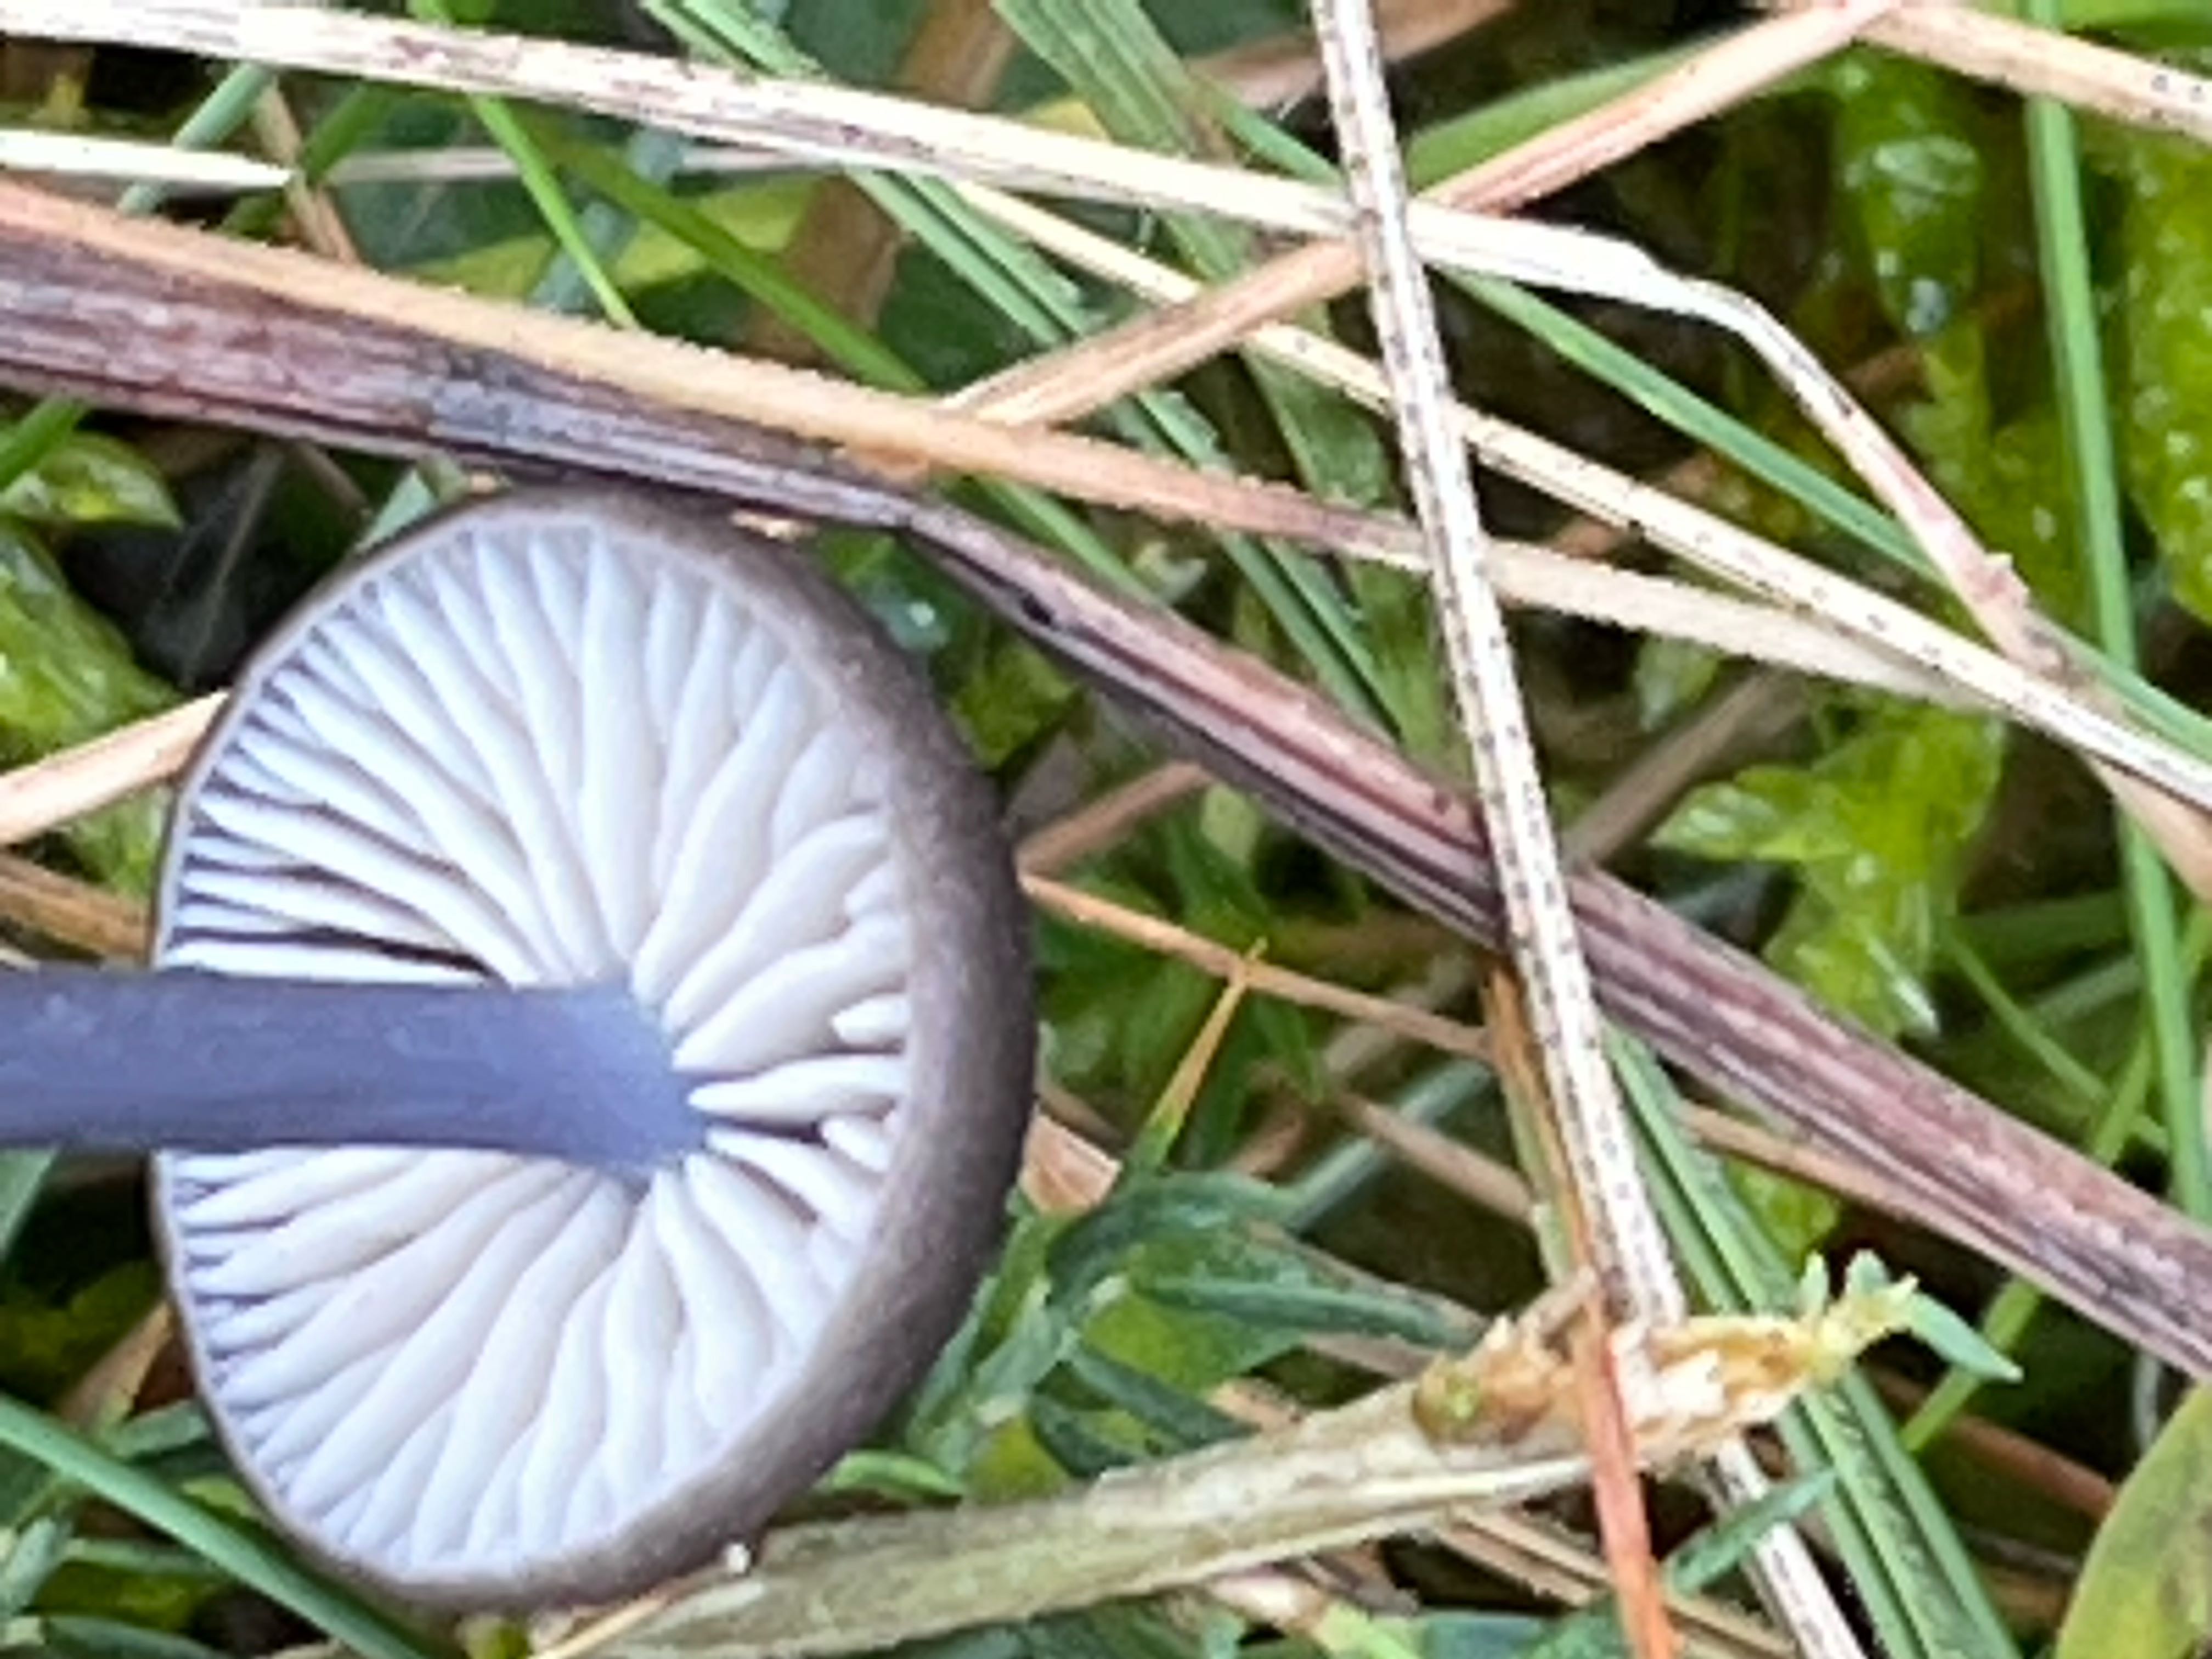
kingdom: Fungi
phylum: Basidiomycota
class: Agaricomycetes
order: Agaricales
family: Entolomataceae
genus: Entoloma
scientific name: Entoloma atrocoeruleum
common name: sortblå rødblad
